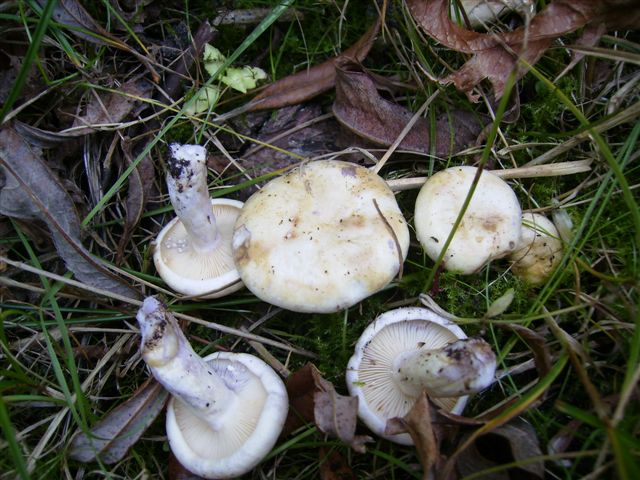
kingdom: Fungi
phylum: Basidiomycota
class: Agaricomycetes
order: Russulales
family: Russulaceae
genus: Lactarius
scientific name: Lactarius aspideus
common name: pile-mælkehat
